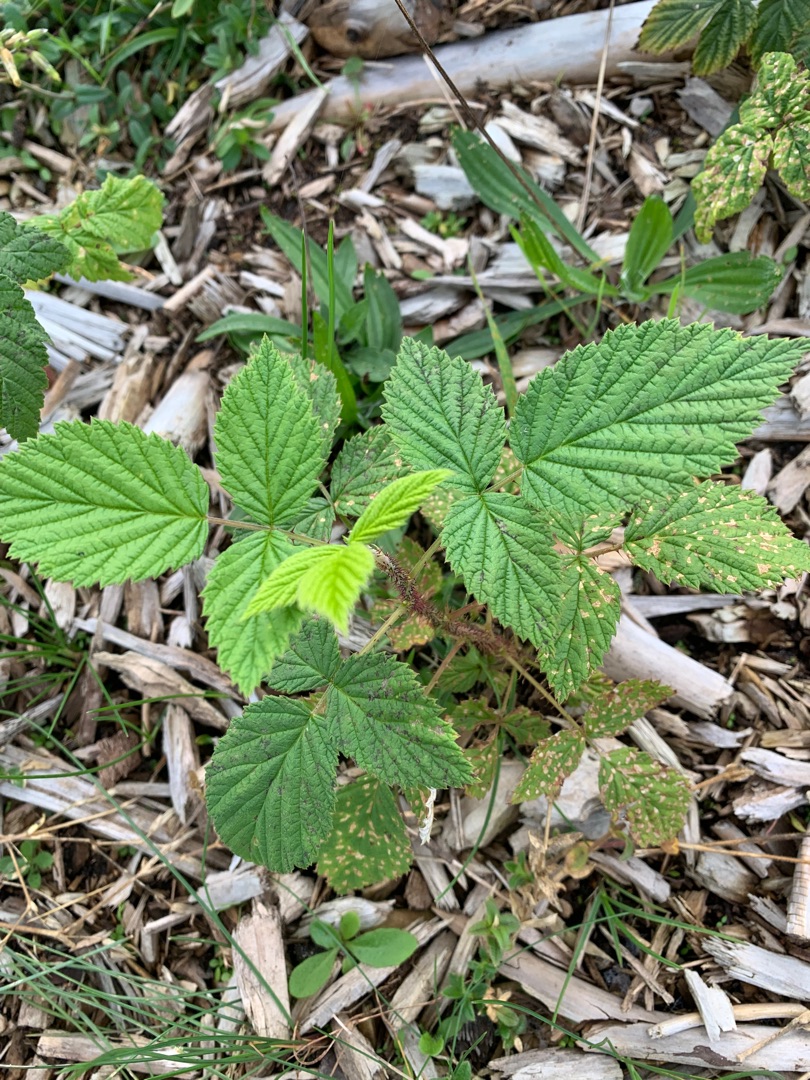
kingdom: Plantae
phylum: Tracheophyta
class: Magnoliopsida
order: Rosales
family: Rosaceae
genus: Rubus
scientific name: Rubus idaeus
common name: Hindbær
